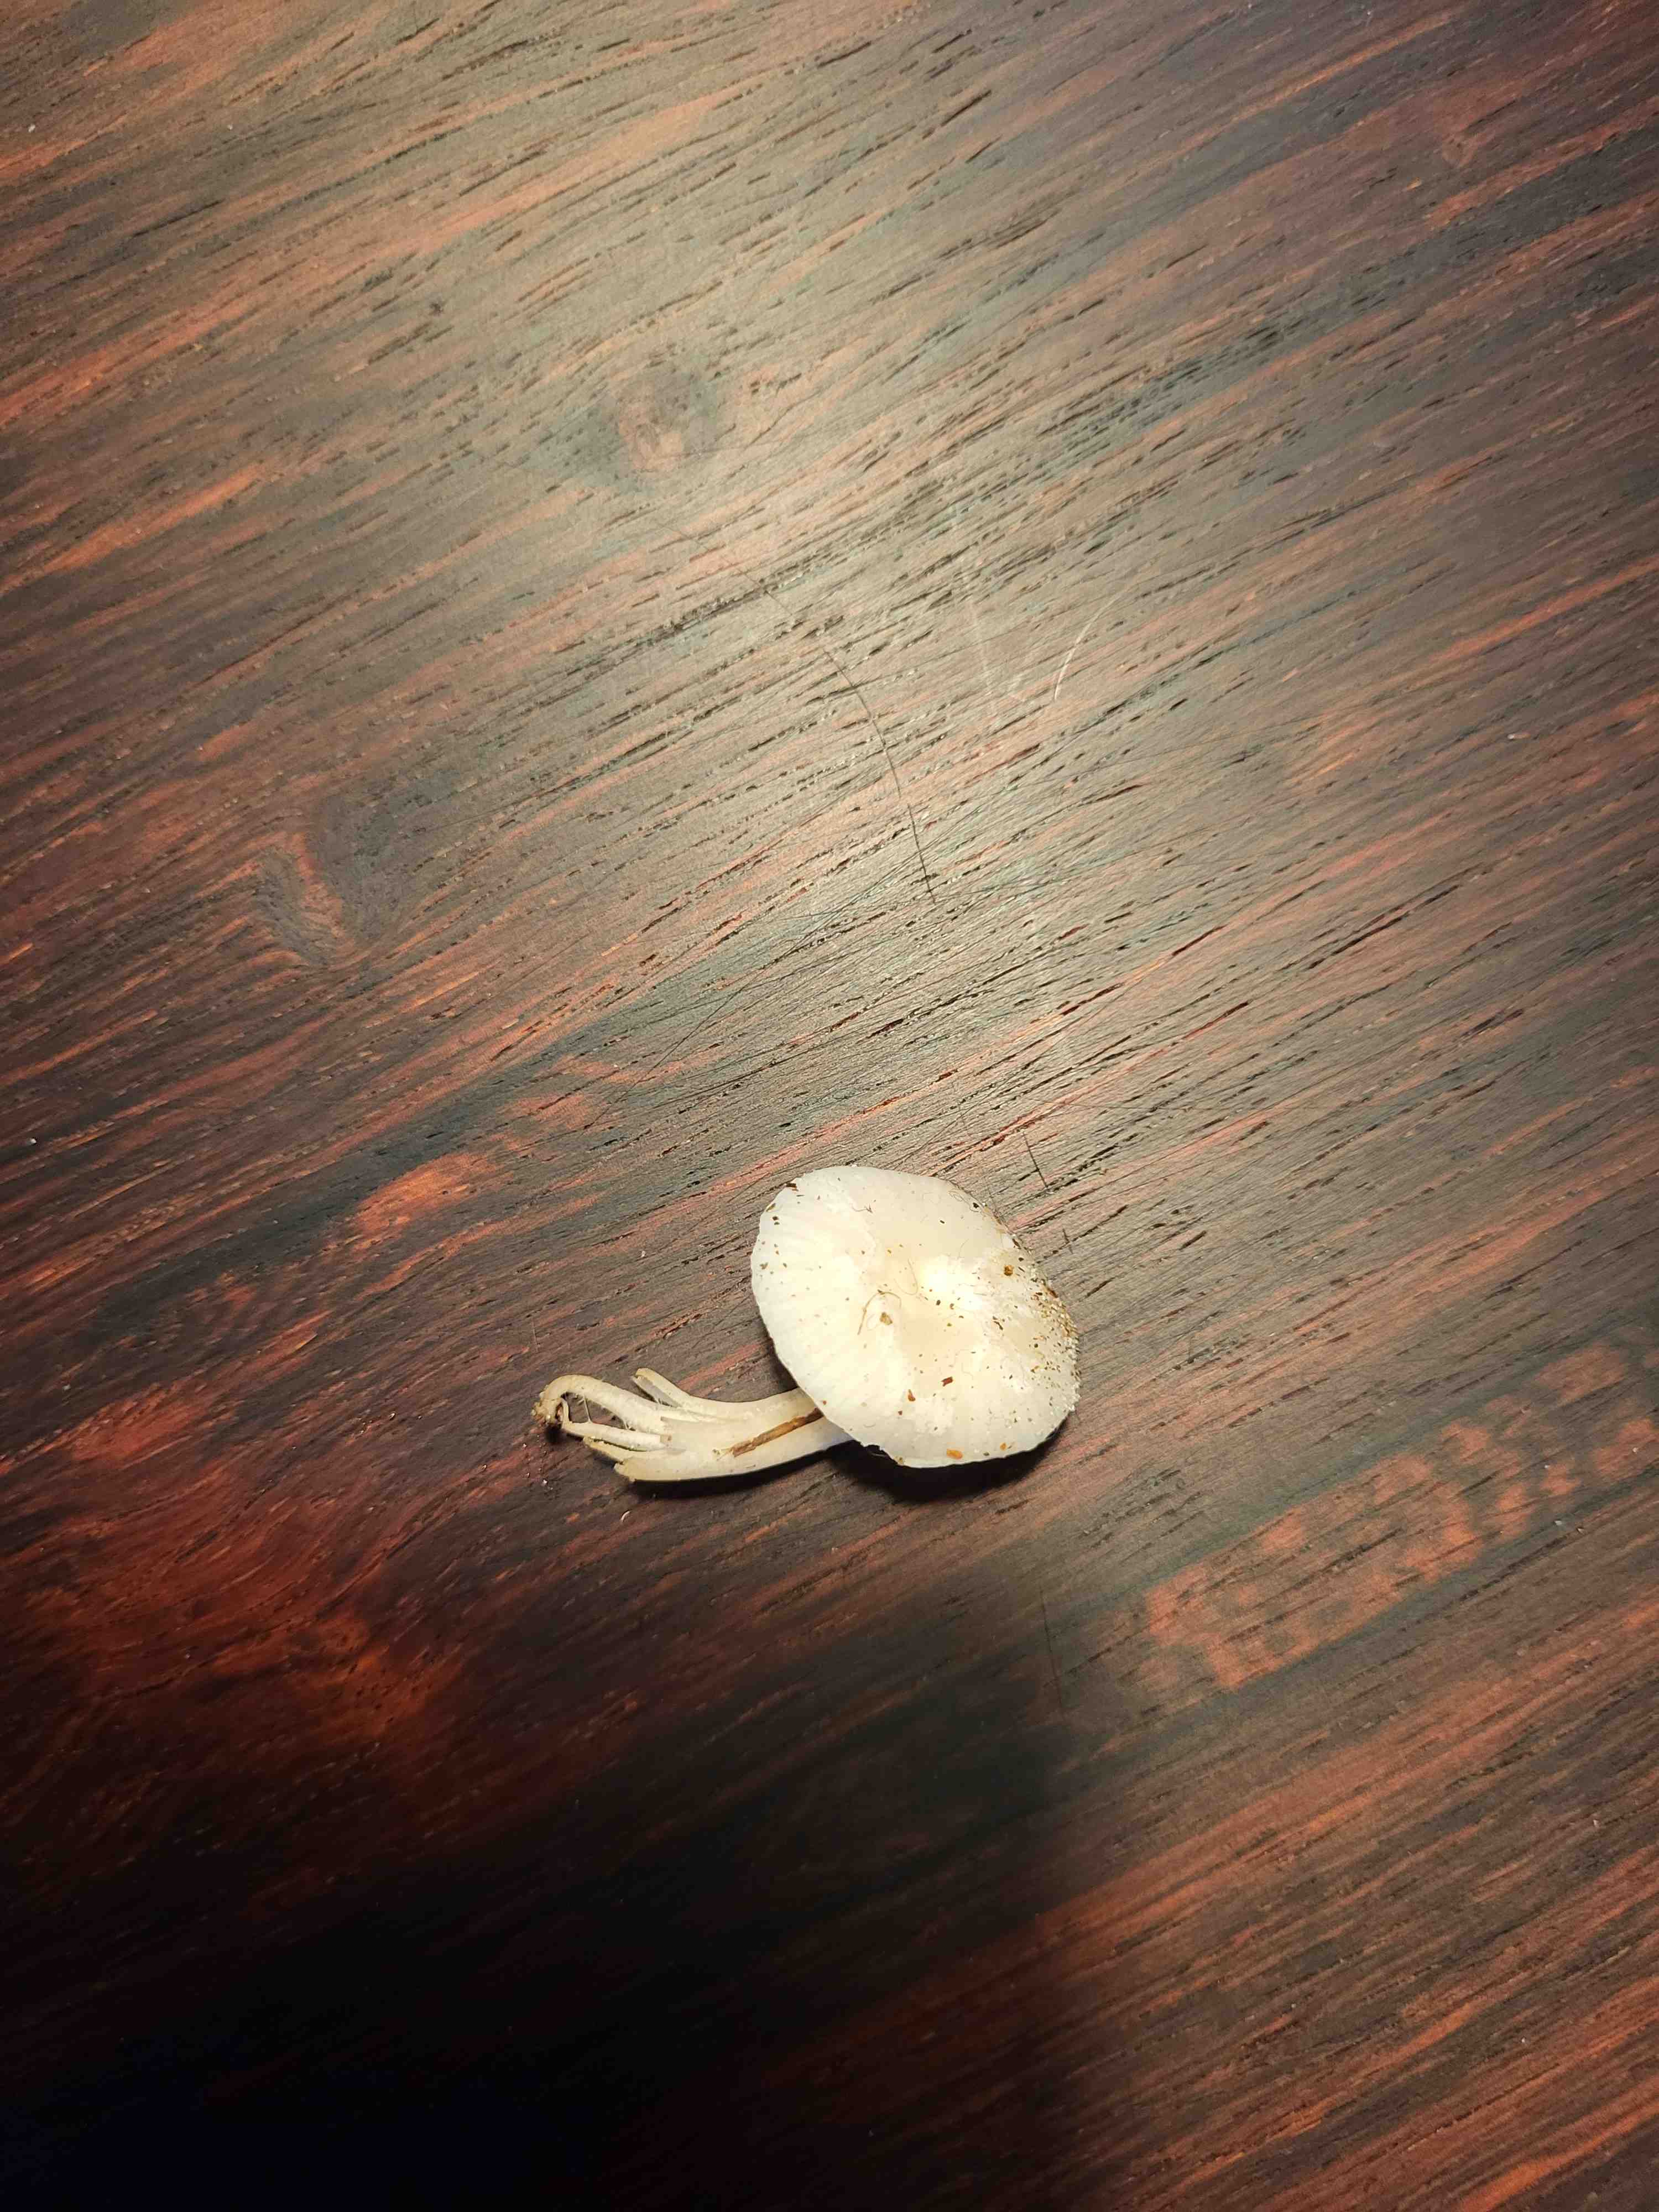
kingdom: Fungi
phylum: Basidiomycota
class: Agaricomycetes
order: Agaricales
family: Hygrophoraceae
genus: Cuphophyllus
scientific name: Cuphophyllus virgineus
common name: snehvid vokshat
